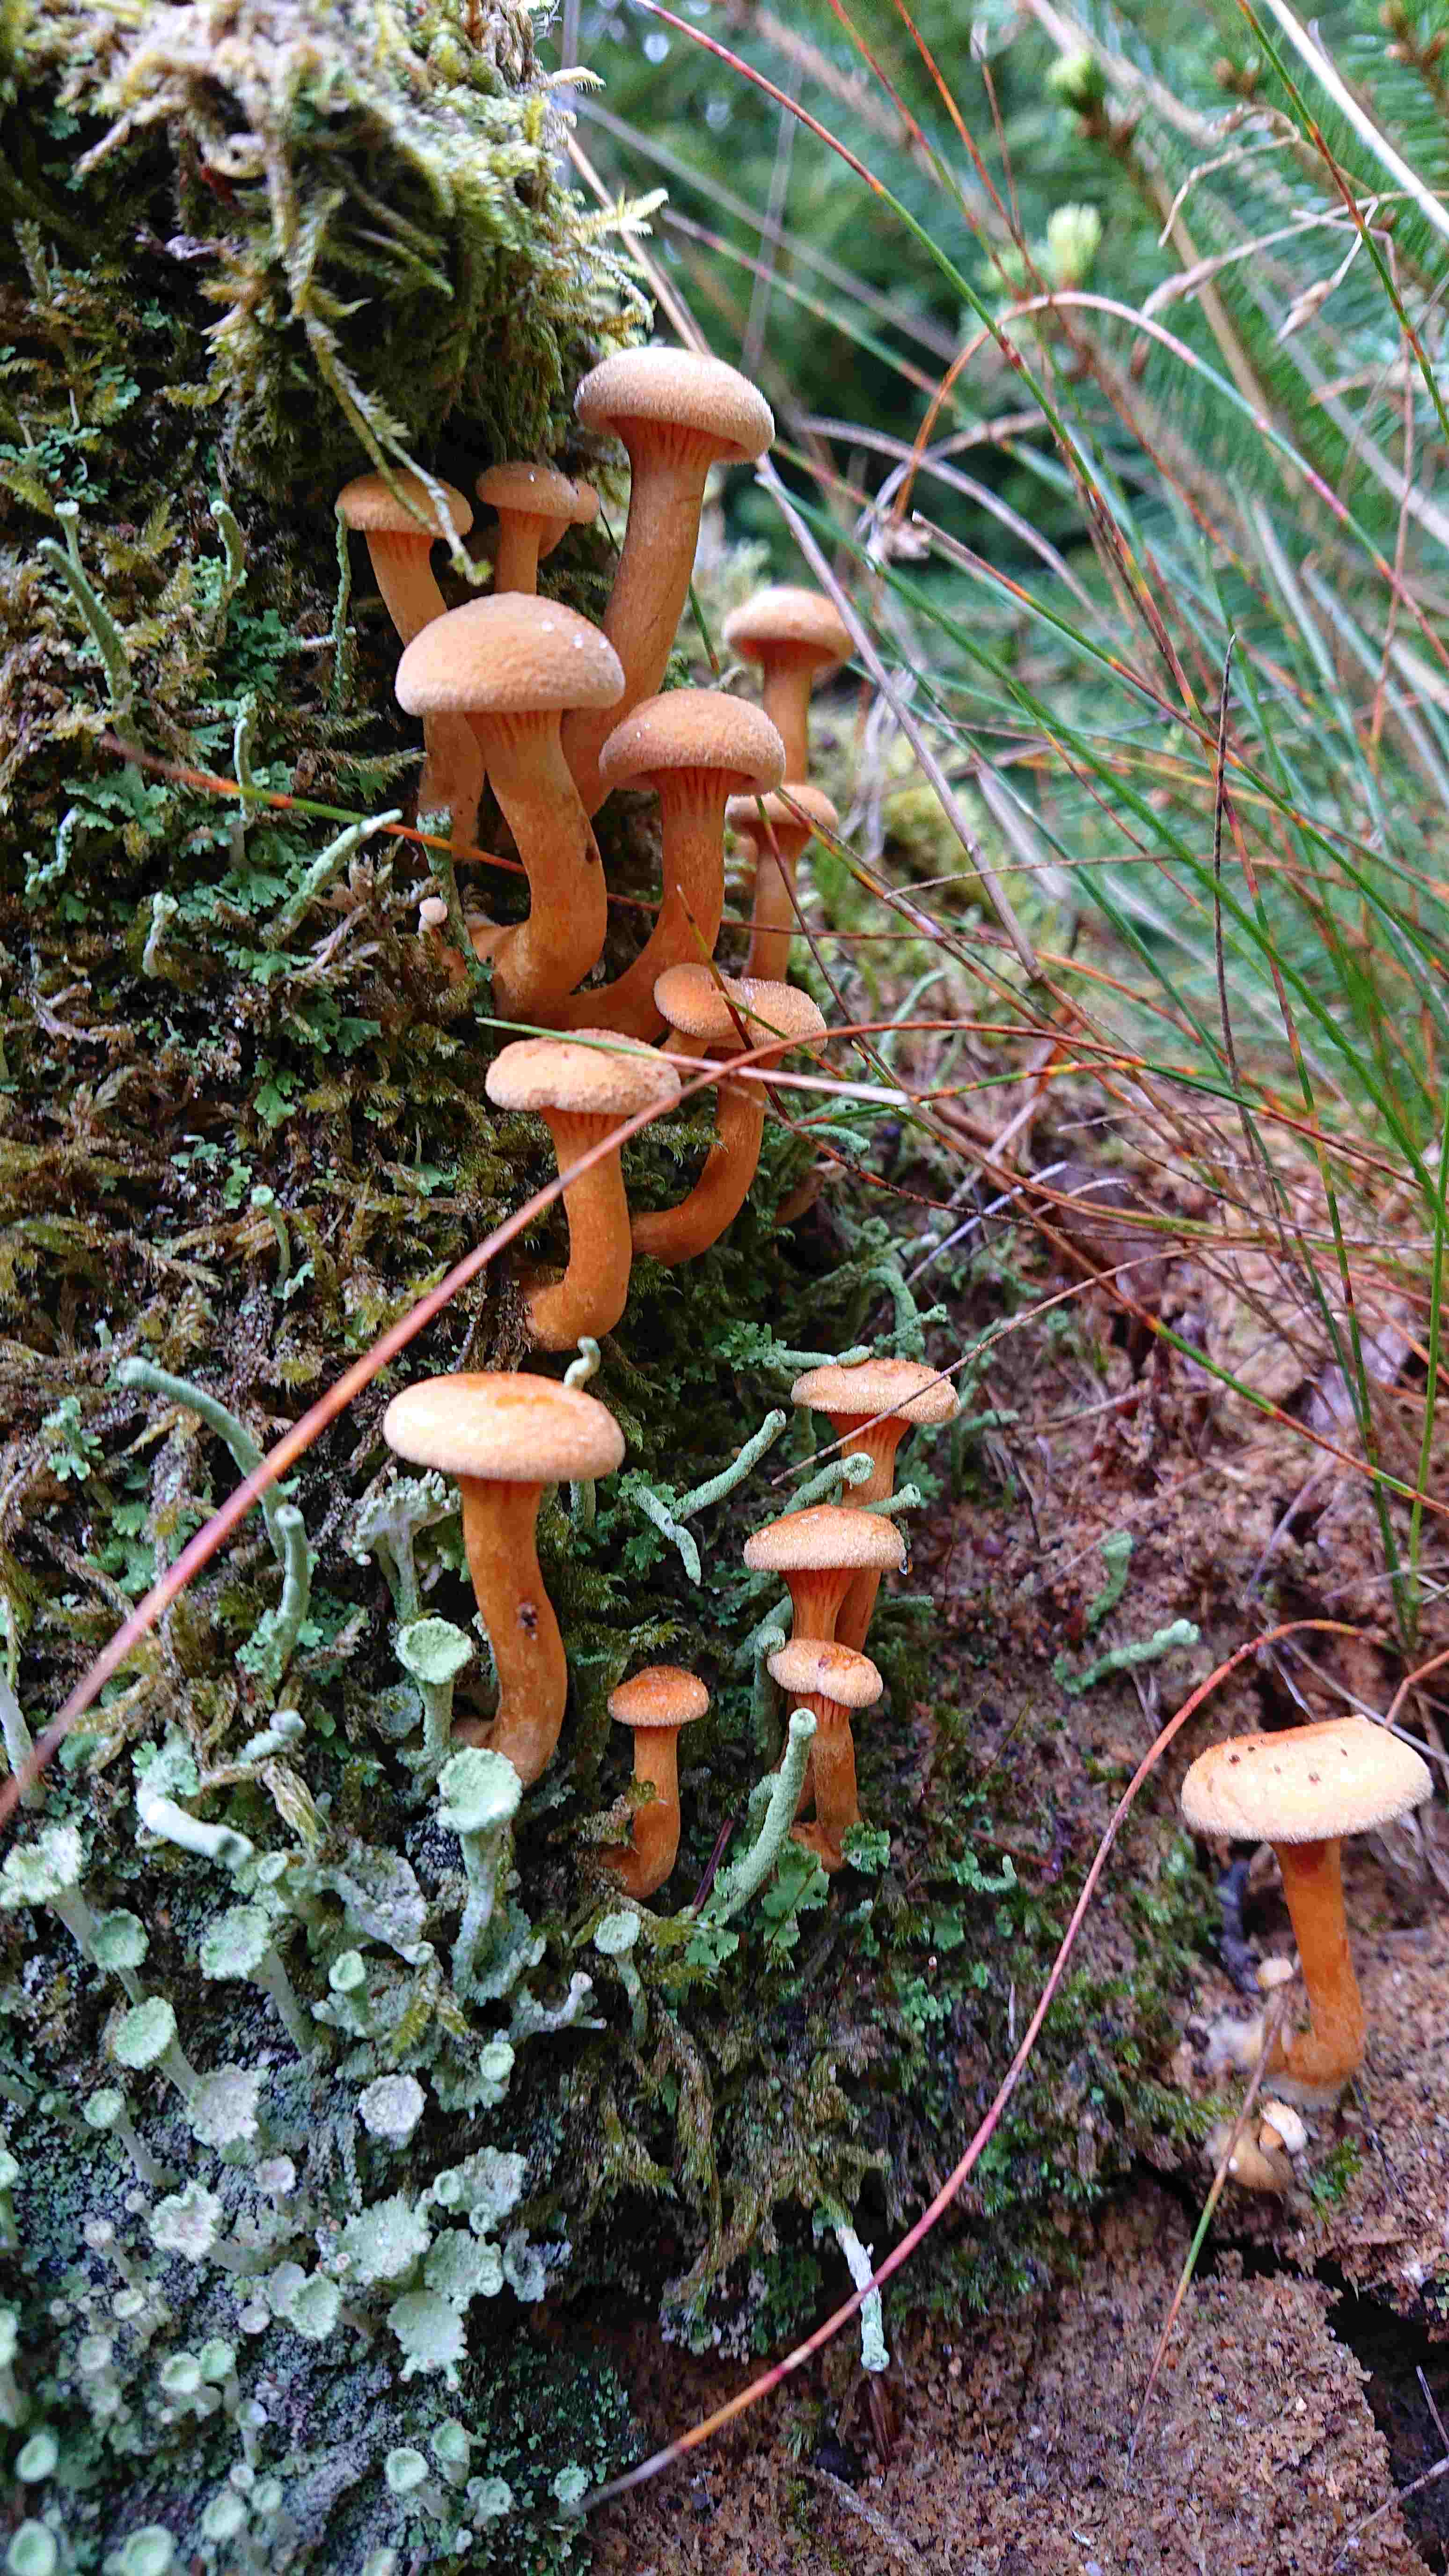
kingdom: Fungi
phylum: Basidiomycota
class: Agaricomycetes
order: Boletales
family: Hygrophoropsidaceae
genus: Hygrophoropsis
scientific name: Hygrophoropsis aurantiaca
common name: almindelig orangekantarel
